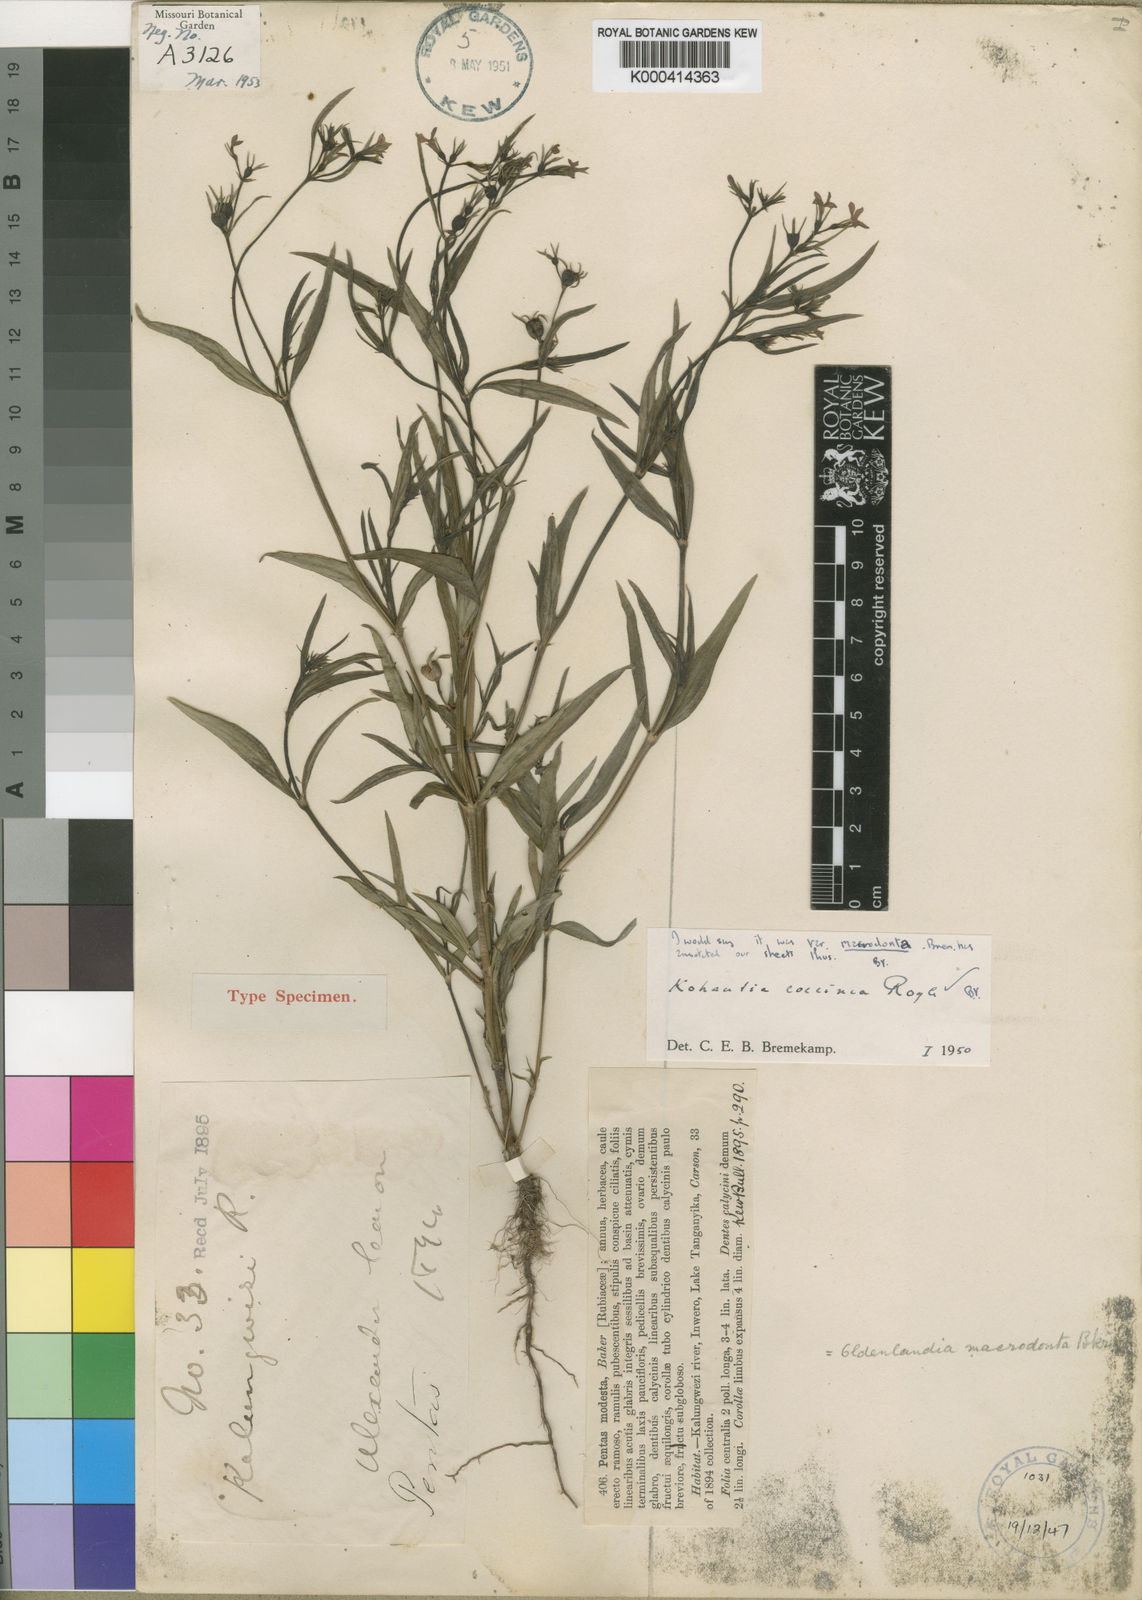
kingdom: Plantae
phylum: Tracheophyta
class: Magnoliopsida
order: Gentianales
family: Rubiaceae
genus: Kohautia
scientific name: Kohautia coccinea
